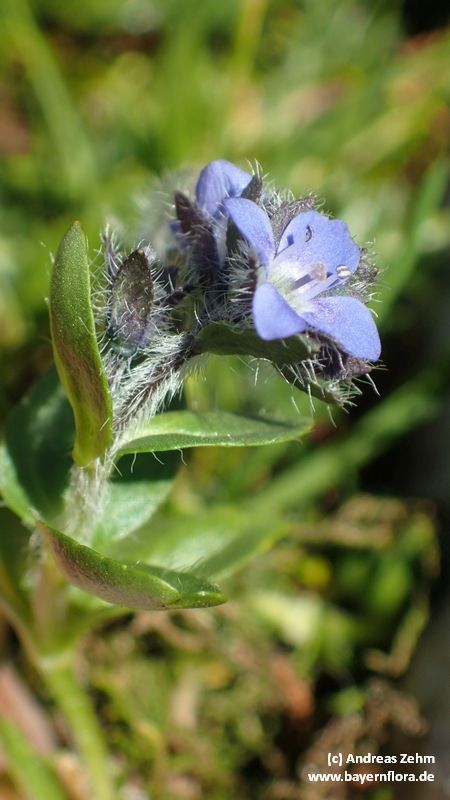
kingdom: Plantae
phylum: Tracheophyta
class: Magnoliopsida
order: Lamiales
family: Plantaginaceae
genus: Veronica
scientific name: Veronica alpina
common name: Alpine speedwell
